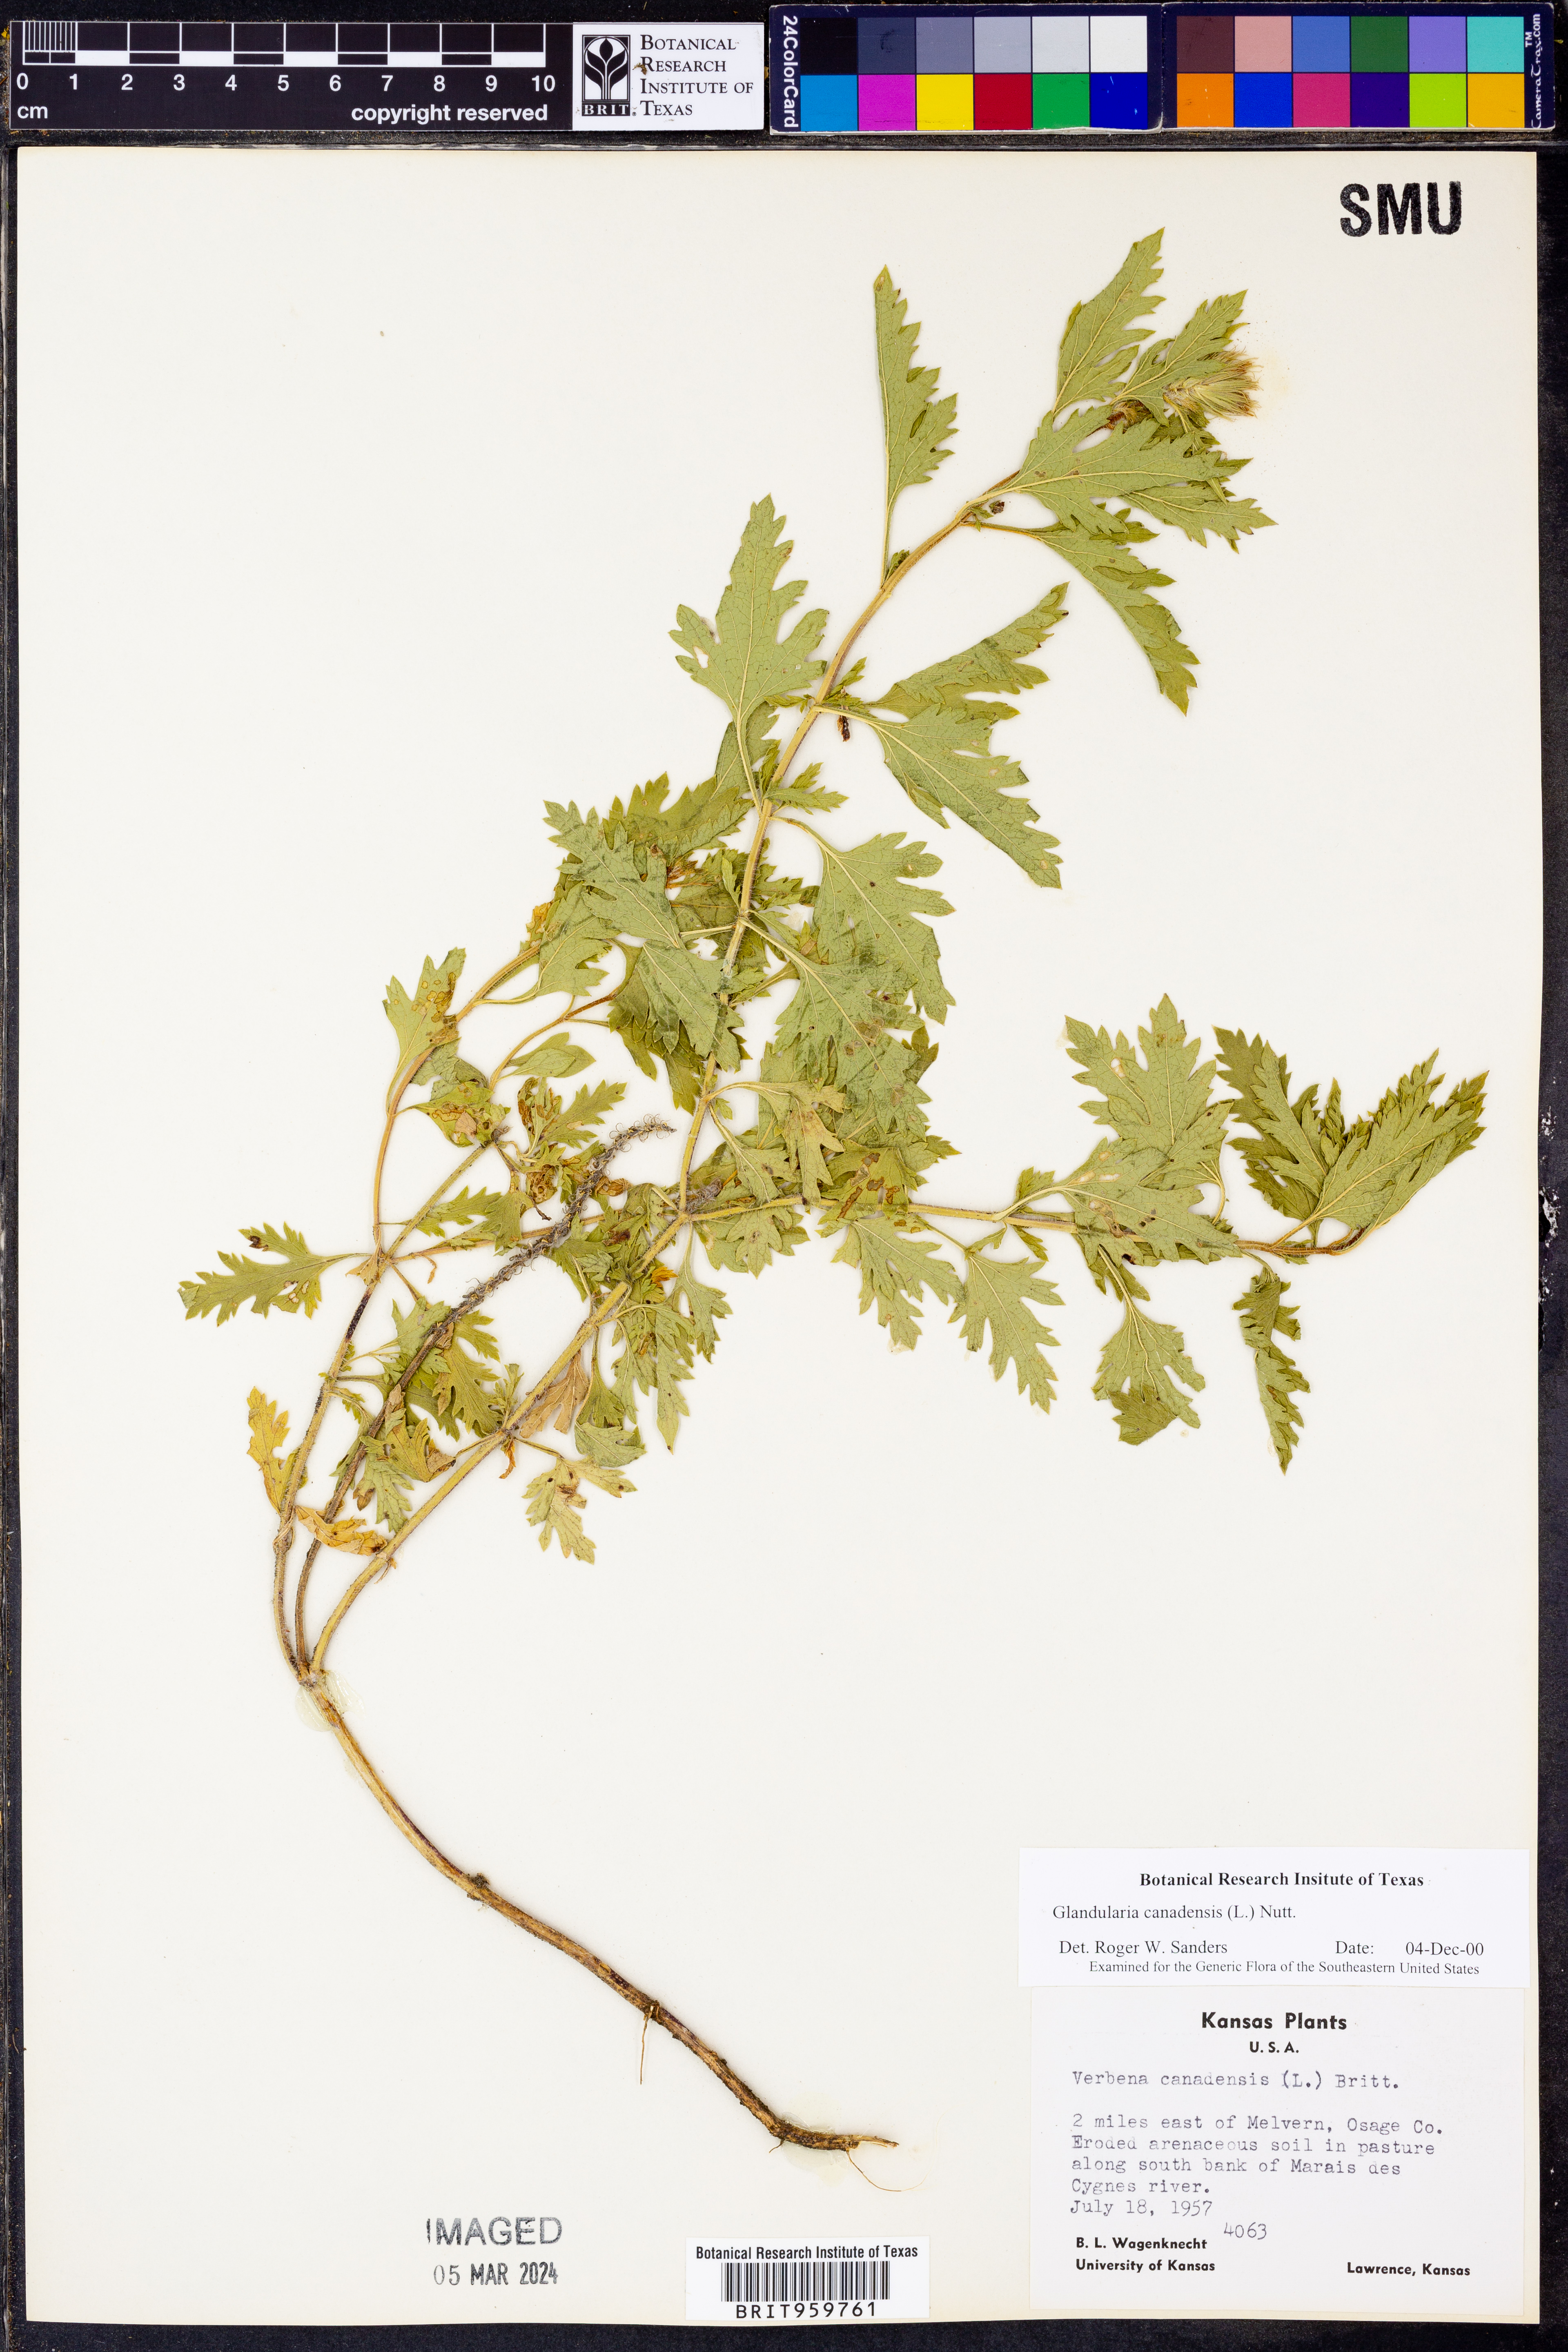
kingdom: Plantae
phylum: Tracheophyta
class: Magnoliopsida
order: Lamiales
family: Verbenaceae
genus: Verbena
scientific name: Verbena canadensis
